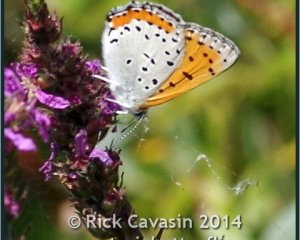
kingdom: Animalia
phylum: Arthropoda
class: Insecta
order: Lepidoptera
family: Sesiidae
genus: Sesia
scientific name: Sesia Lycaena hyllus
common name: Bronze Copper
